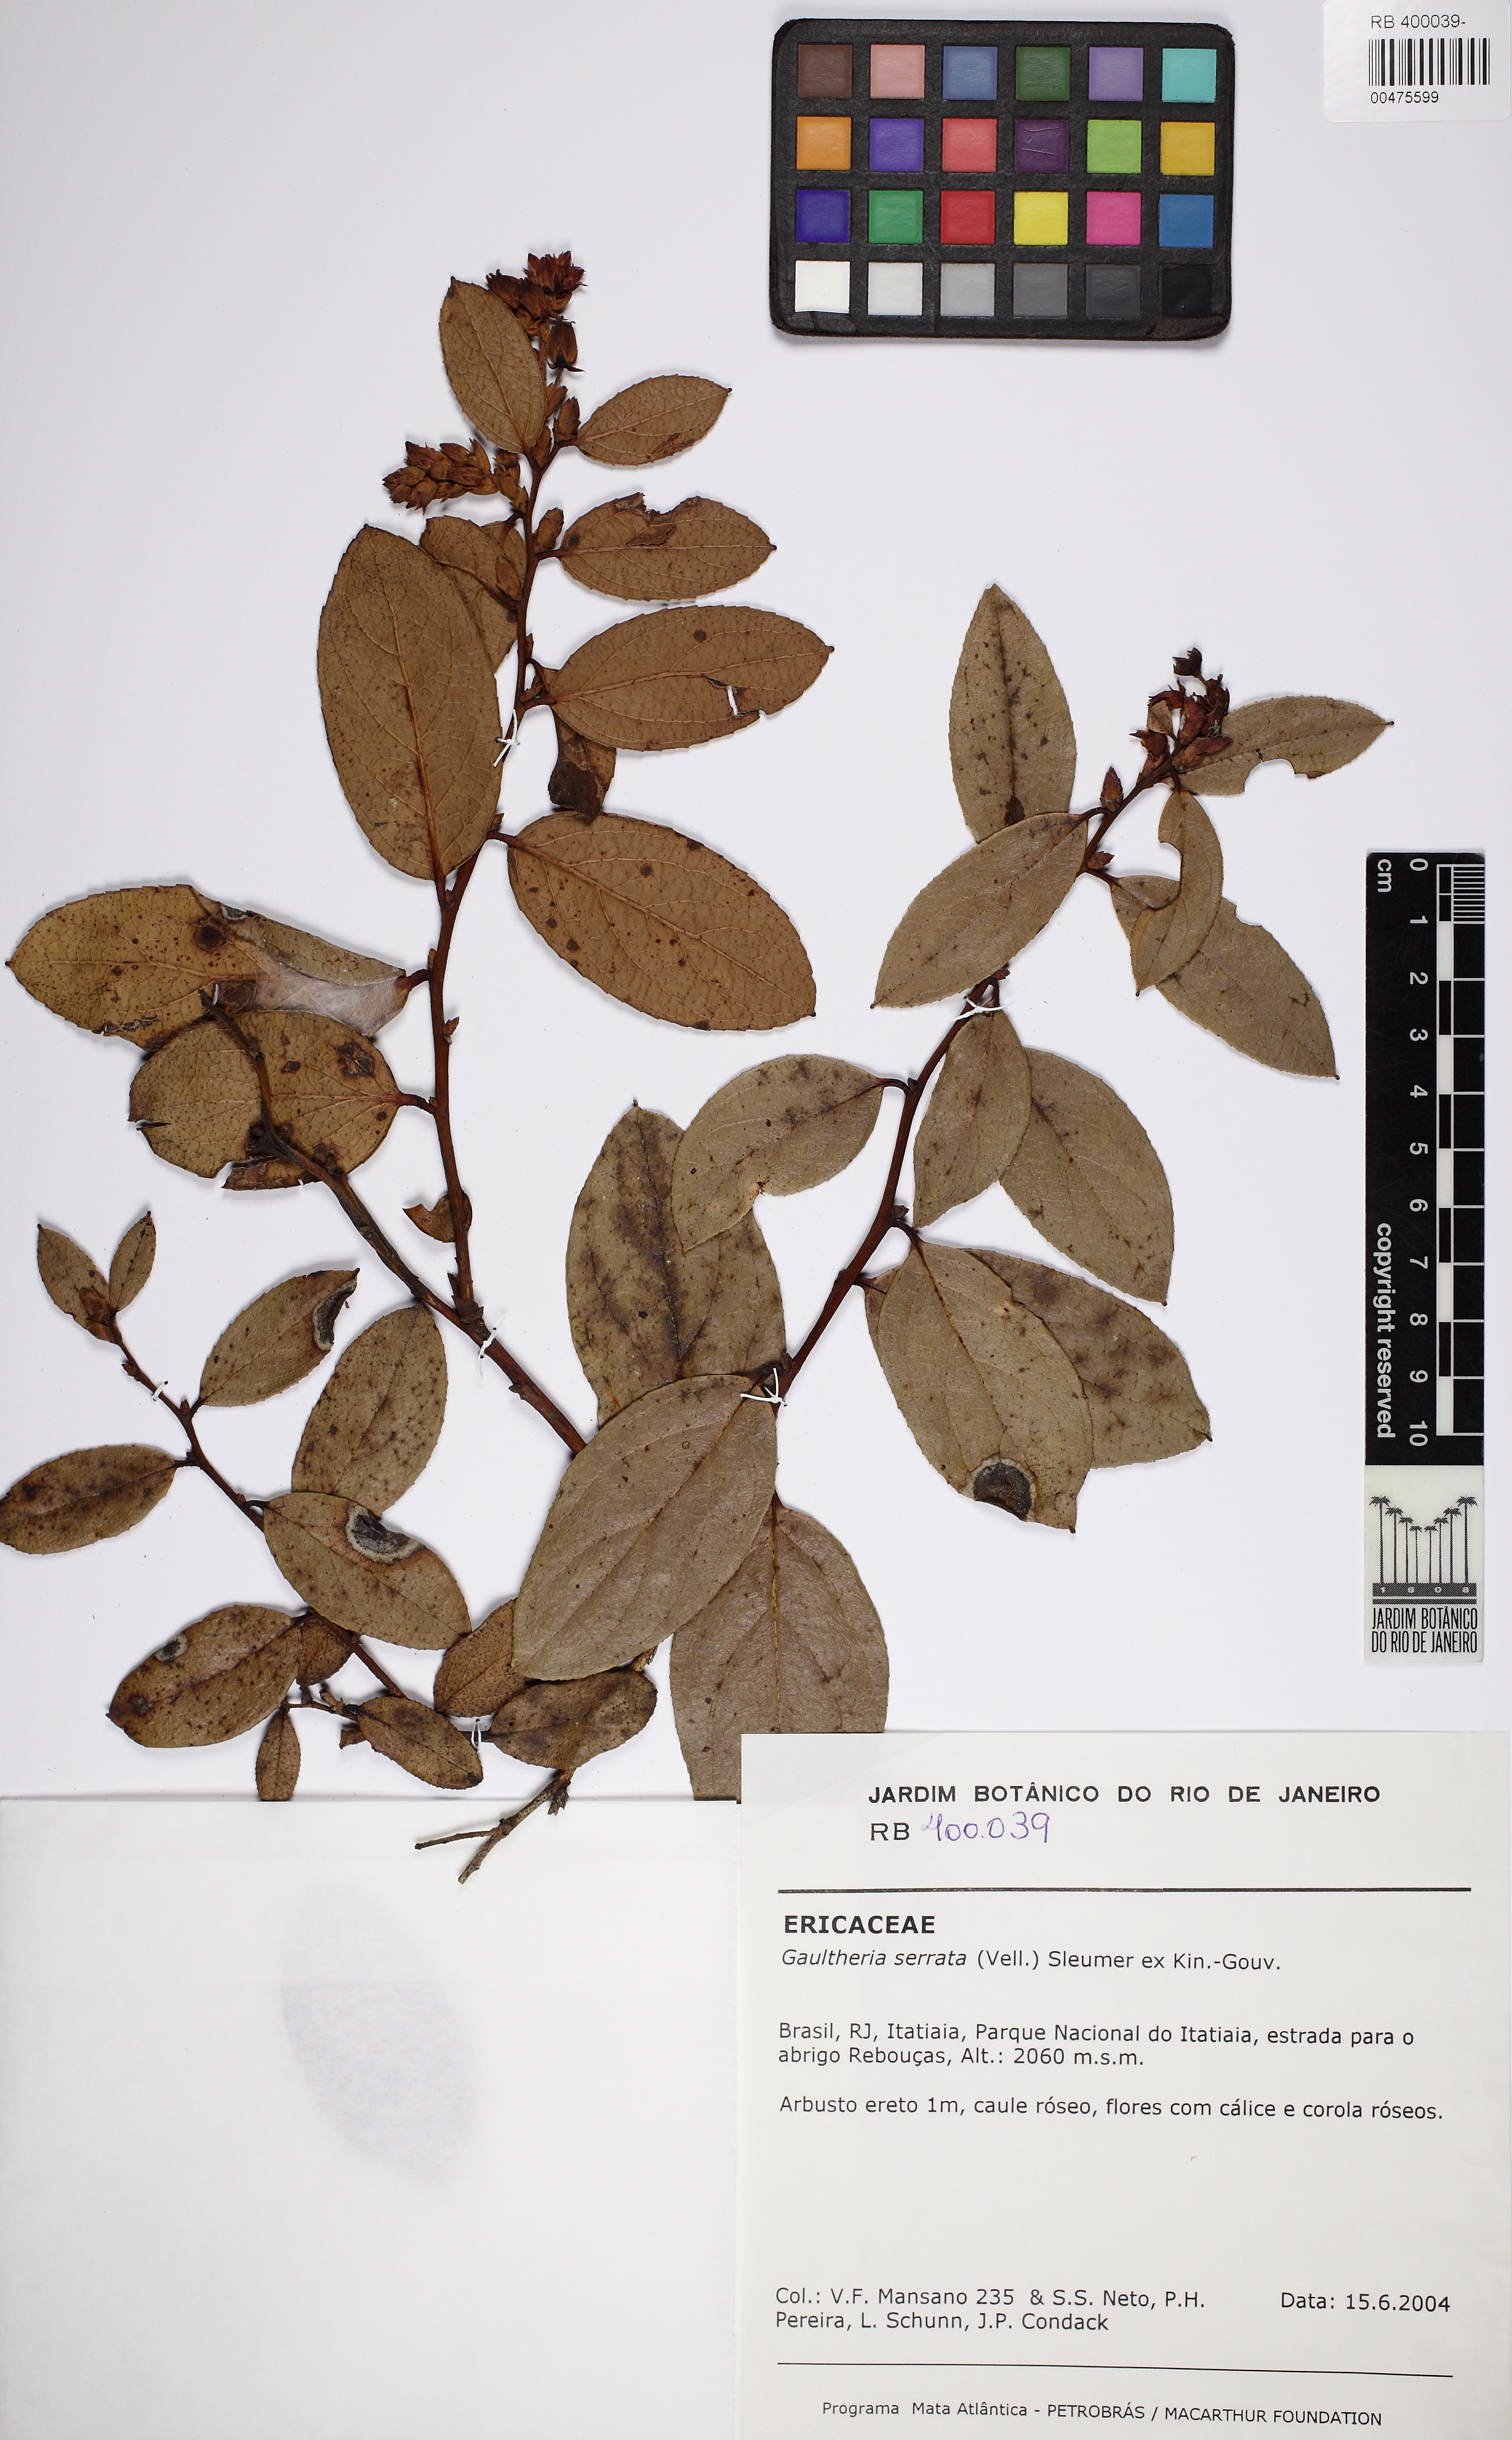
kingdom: Plantae
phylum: Tracheophyta
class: Magnoliopsida
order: Ericales
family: Ericaceae
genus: Gaultheria
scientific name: Gaultheria serrata
